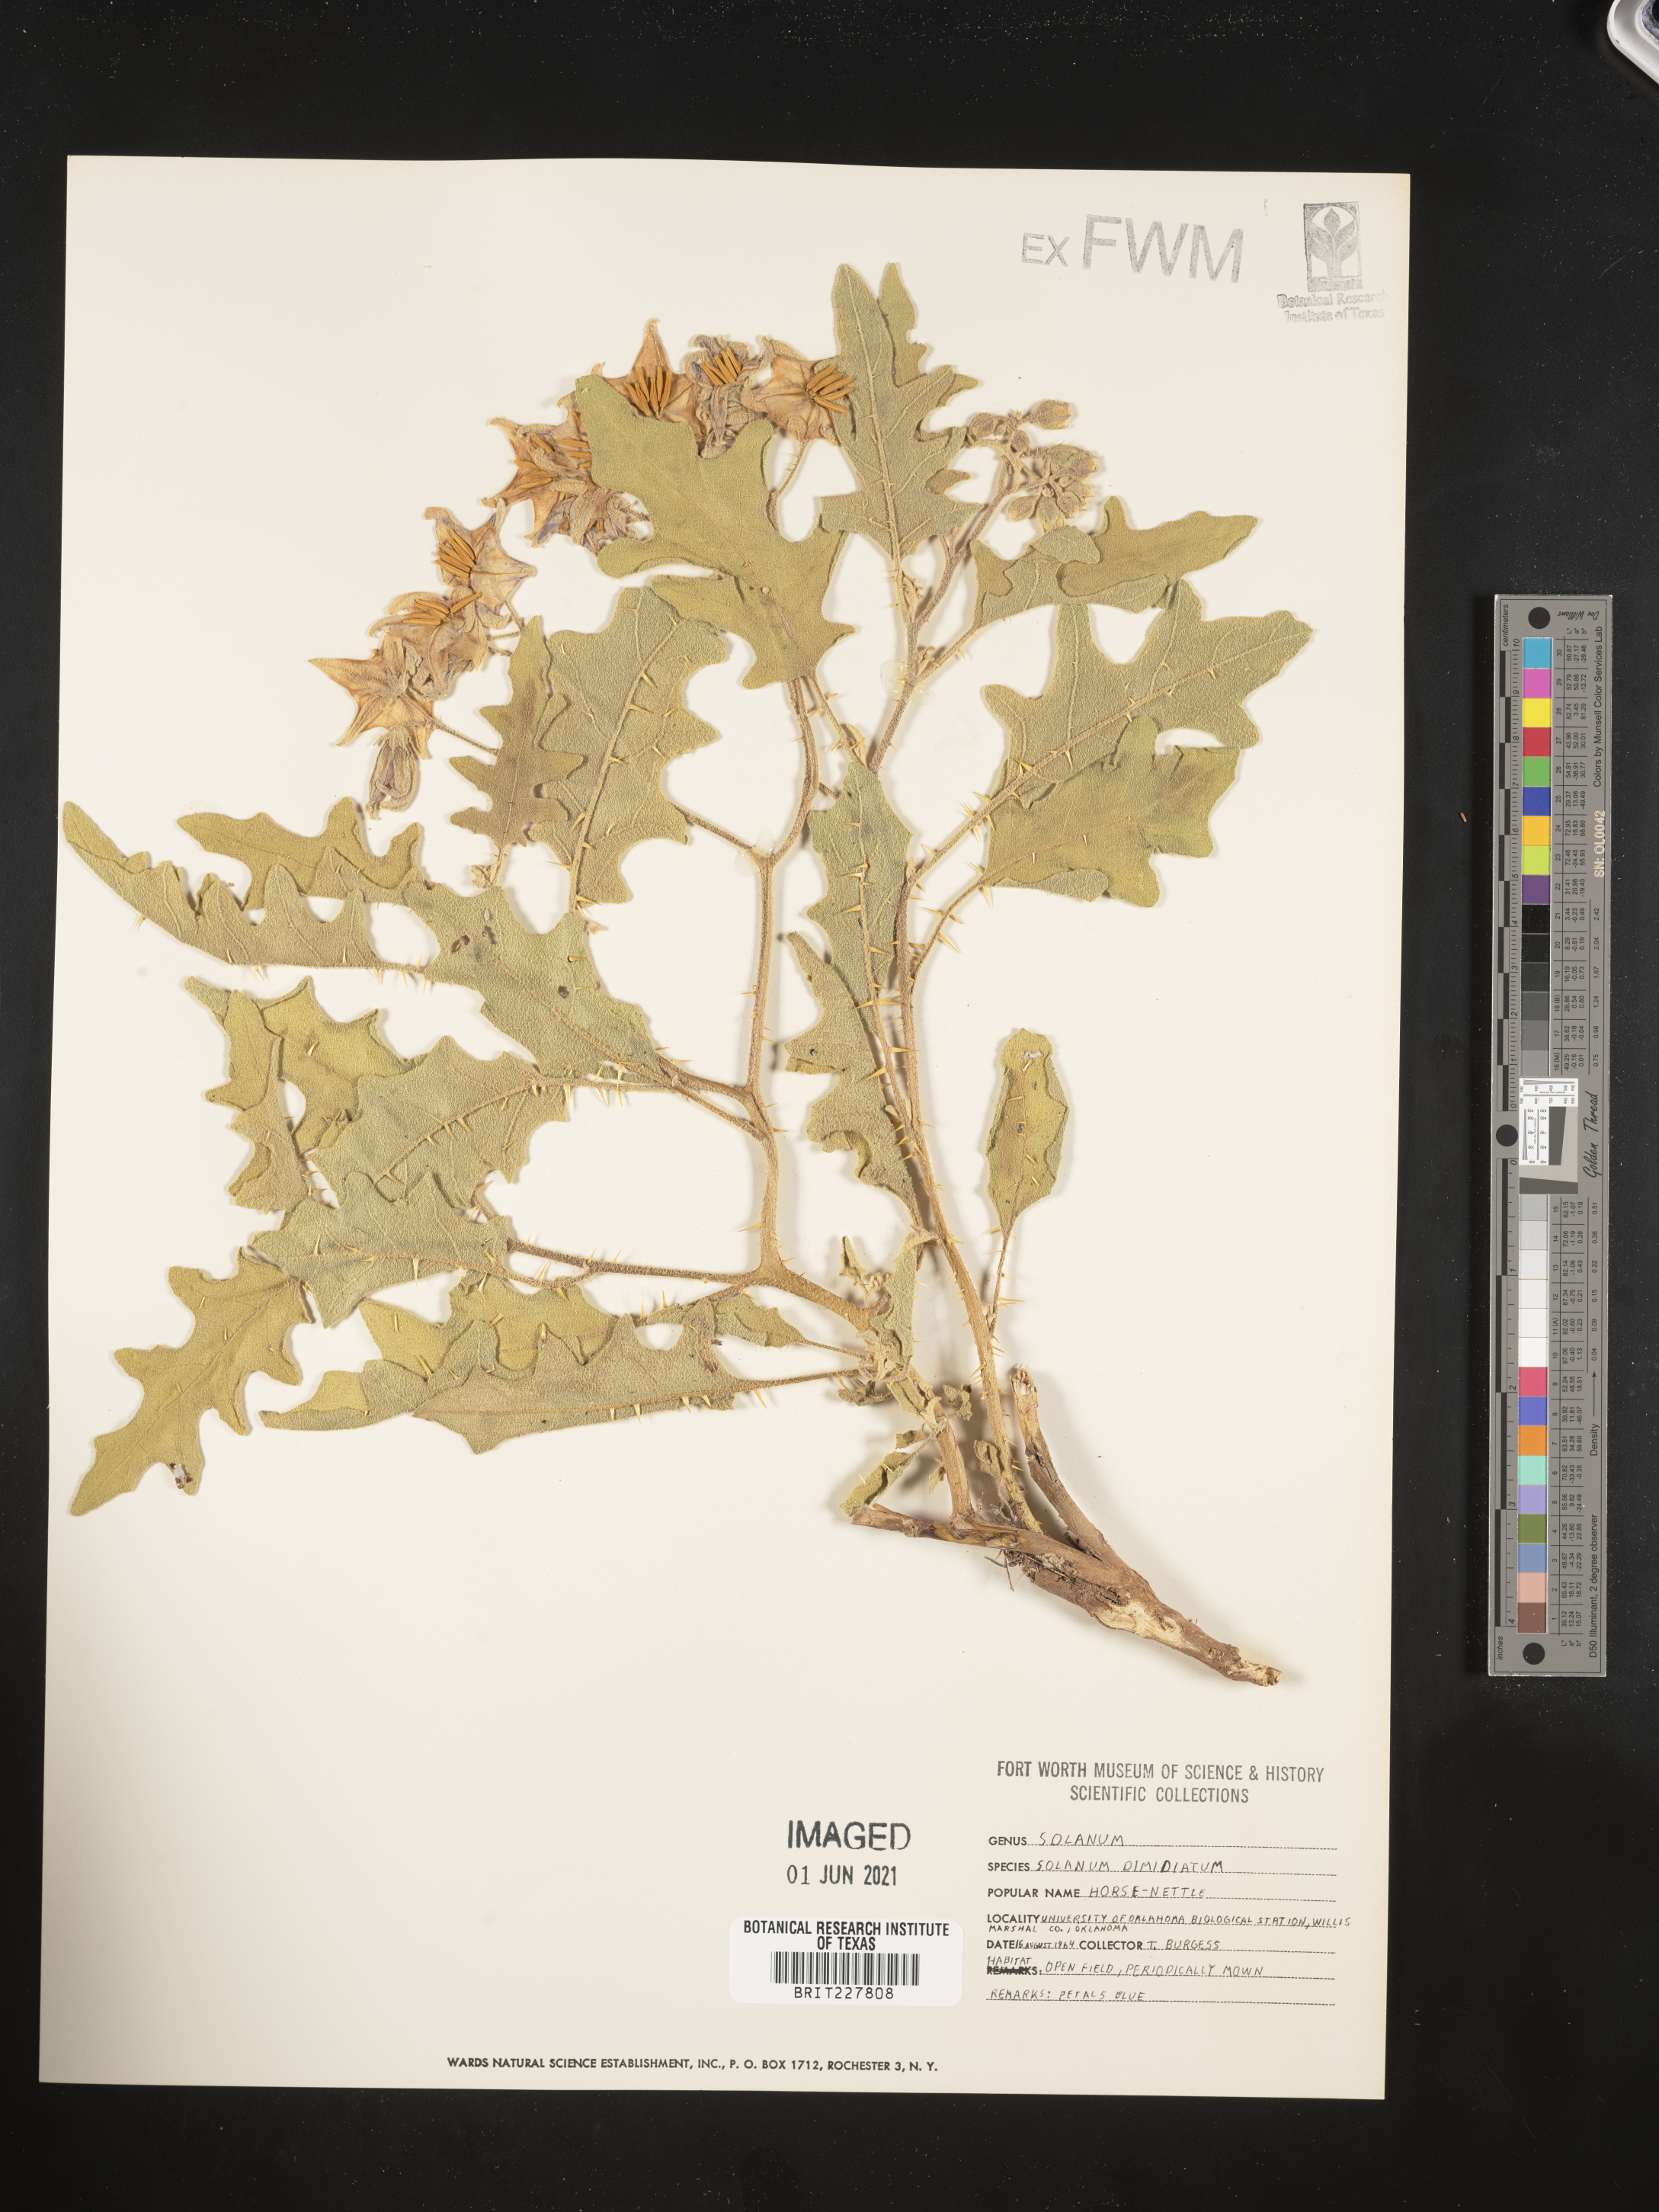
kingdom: Plantae
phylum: Tracheophyta
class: Magnoliopsida
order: Solanales
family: Solanaceae
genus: Solanum
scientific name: Solanum dimidiatum
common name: Carolina horse-nettle
